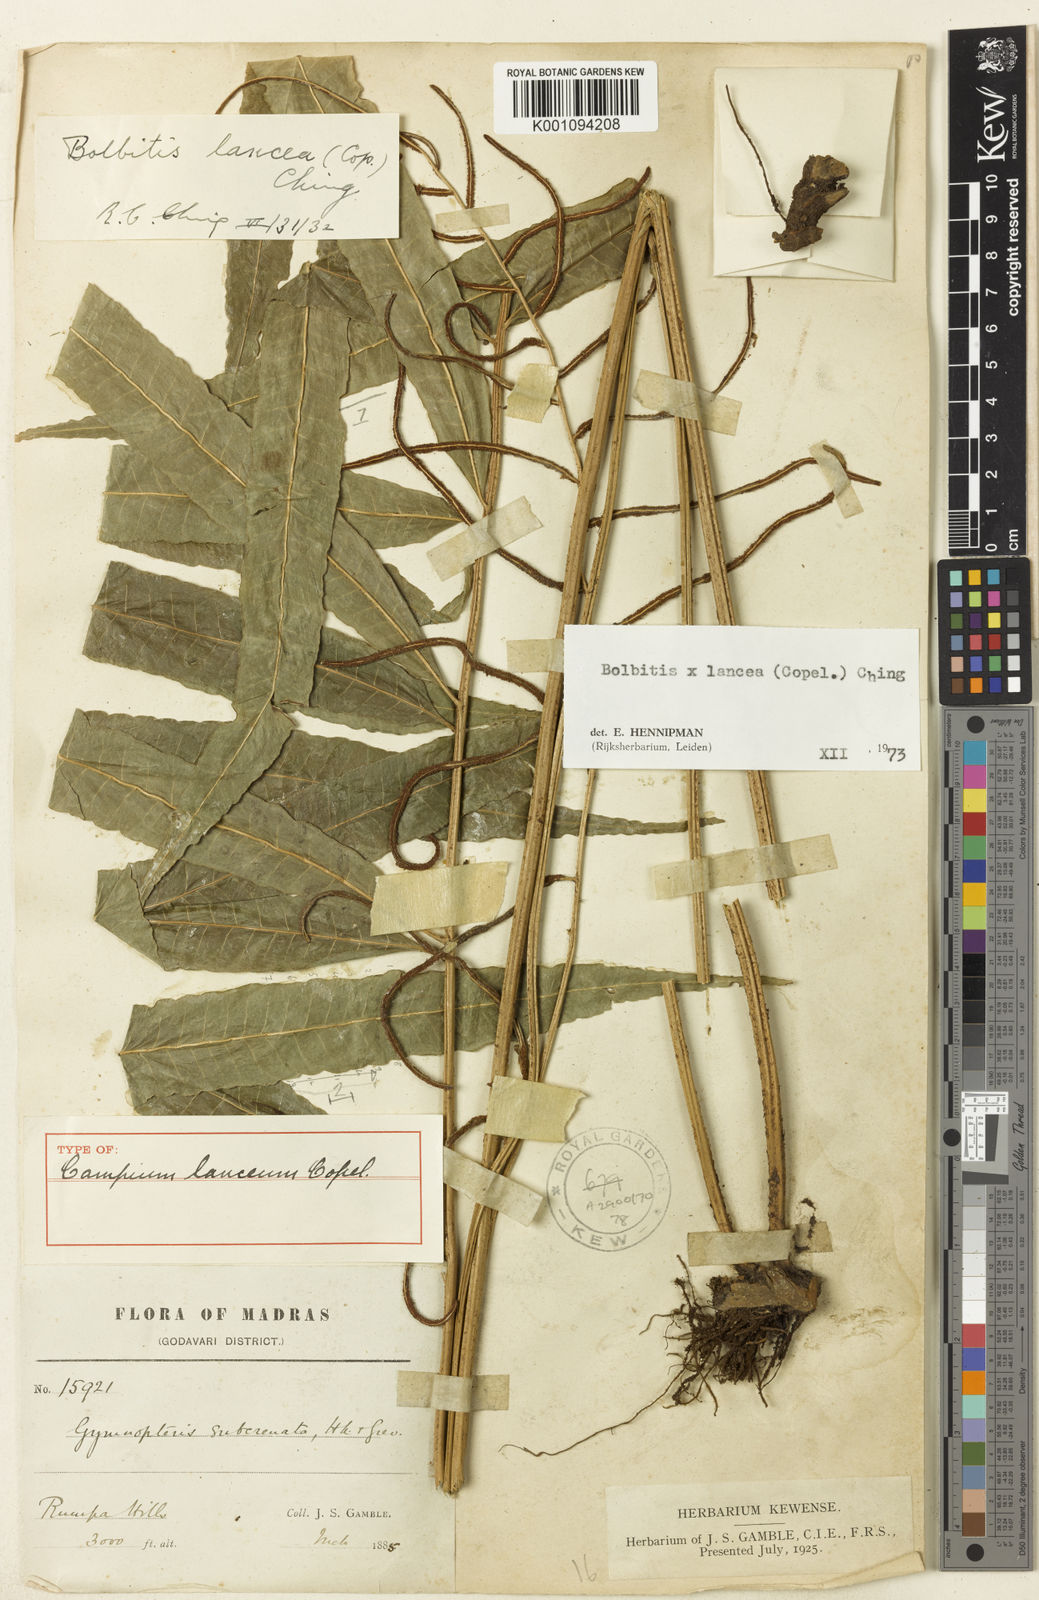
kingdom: Plantae
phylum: Tracheophyta
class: Polypodiopsida
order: Polypodiales
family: Dryopteridaceae
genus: Bolbitis
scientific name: Bolbitis lancea
